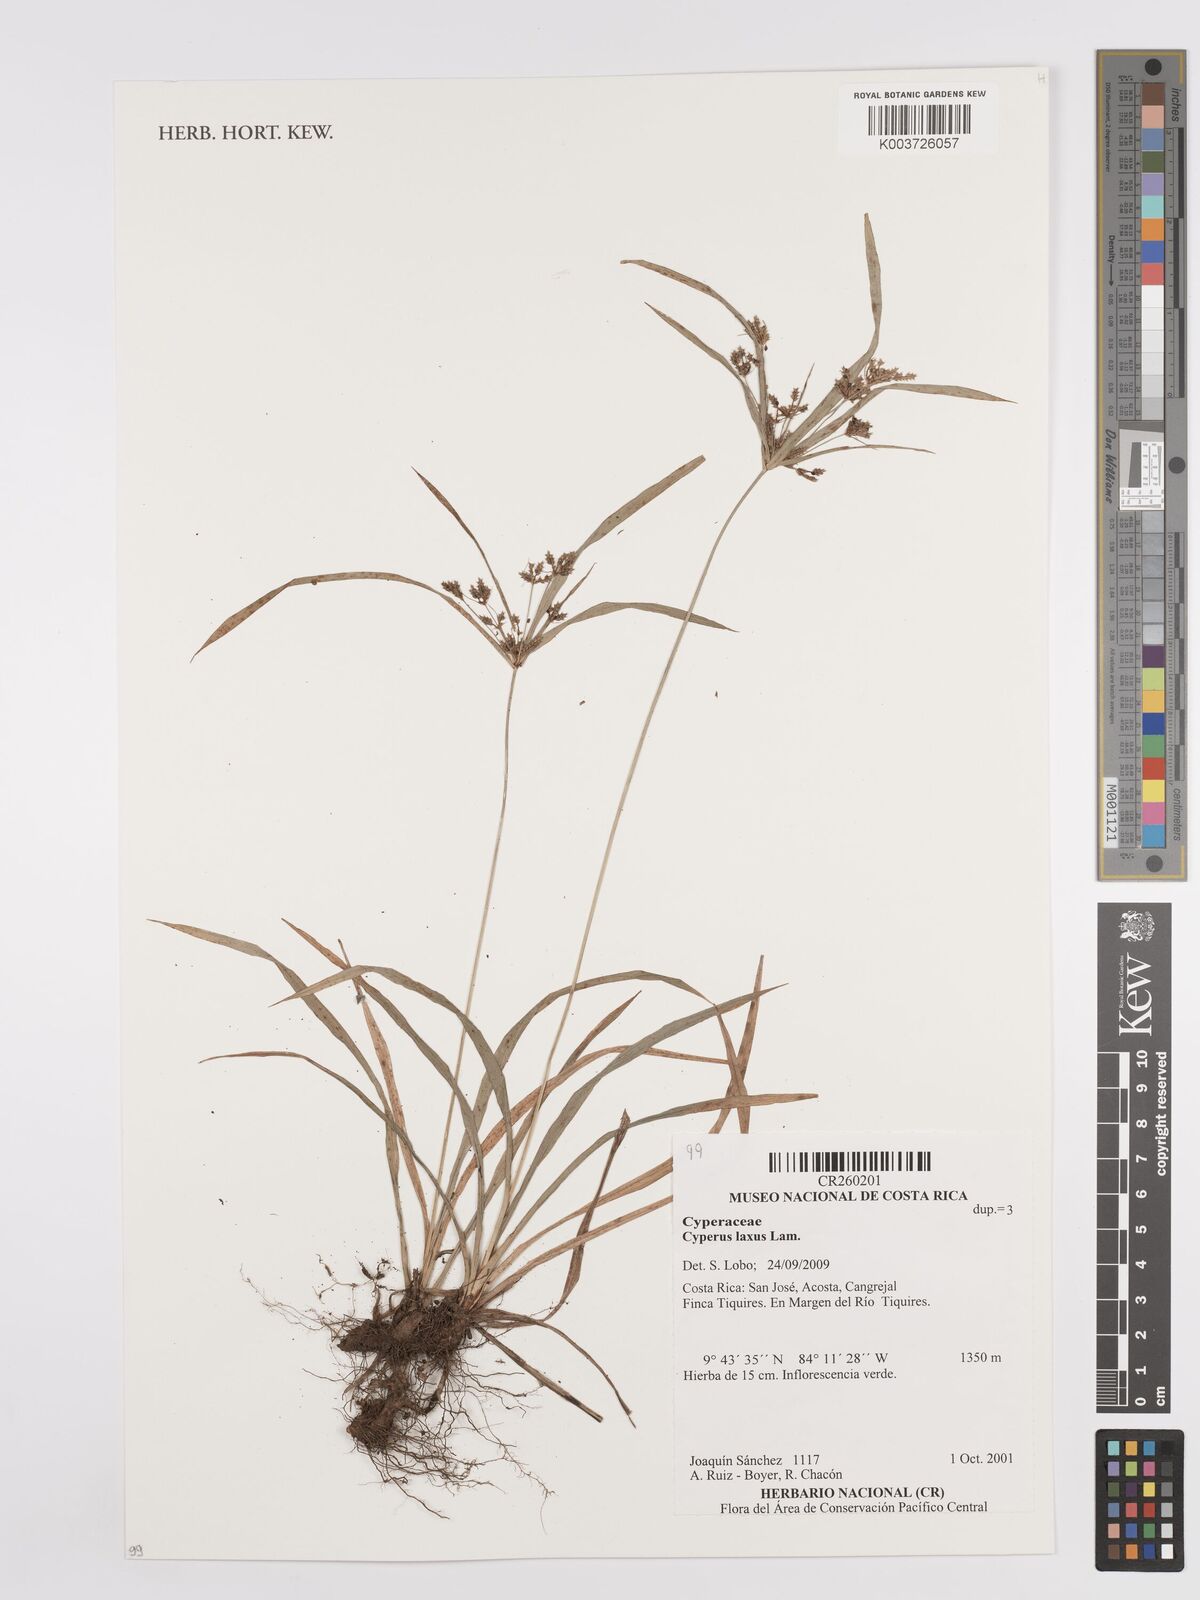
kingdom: Plantae
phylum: Tracheophyta
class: Liliopsida
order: Poales
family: Cyperaceae
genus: Cyperus
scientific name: Cyperus laxus
